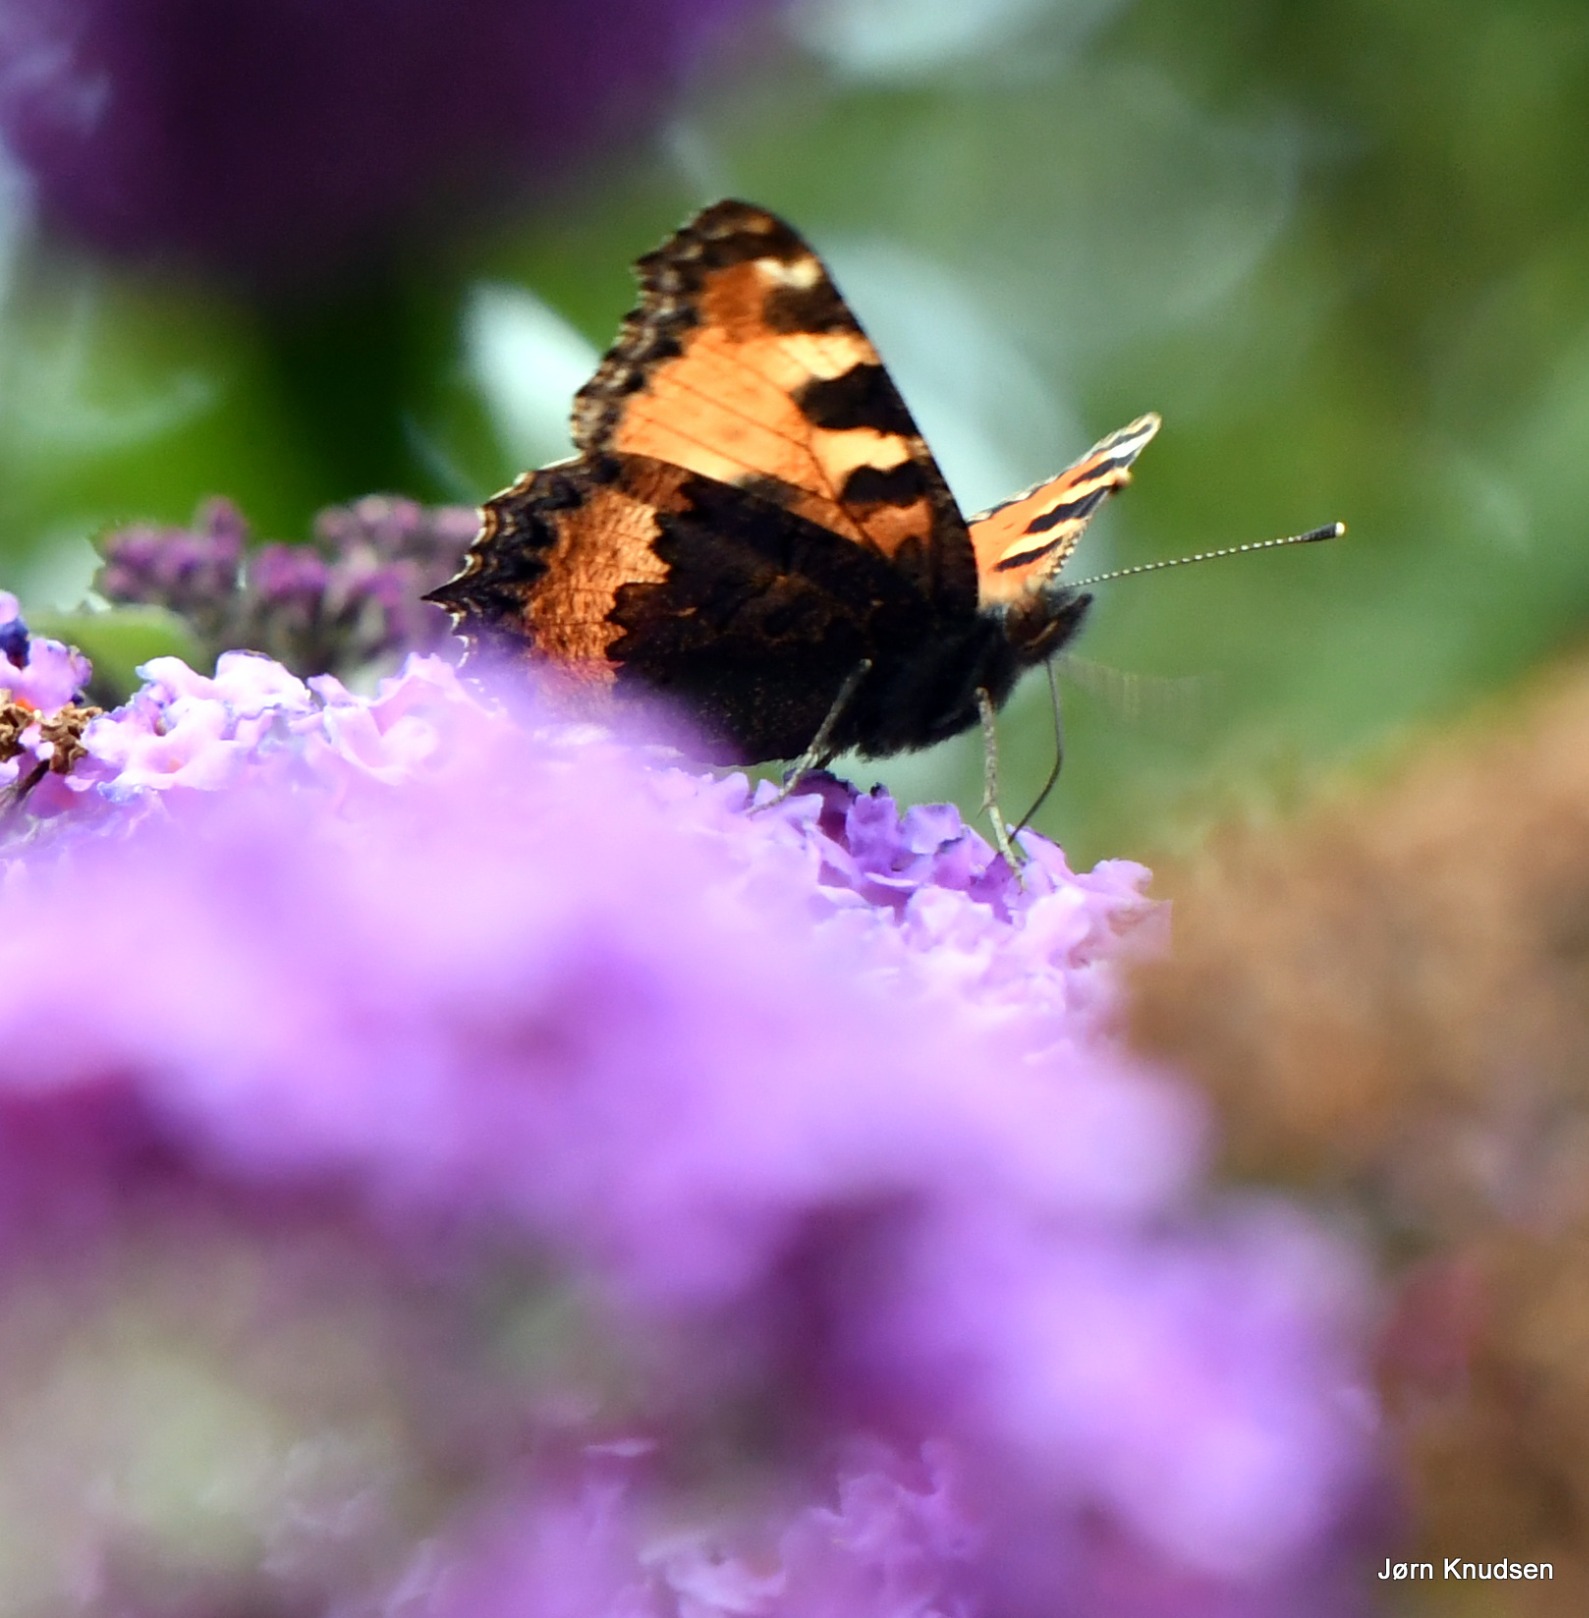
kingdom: Animalia
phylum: Arthropoda
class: Insecta
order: Lepidoptera
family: Nymphalidae
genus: Aglais
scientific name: Aglais urticae
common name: Nældens takvinge
